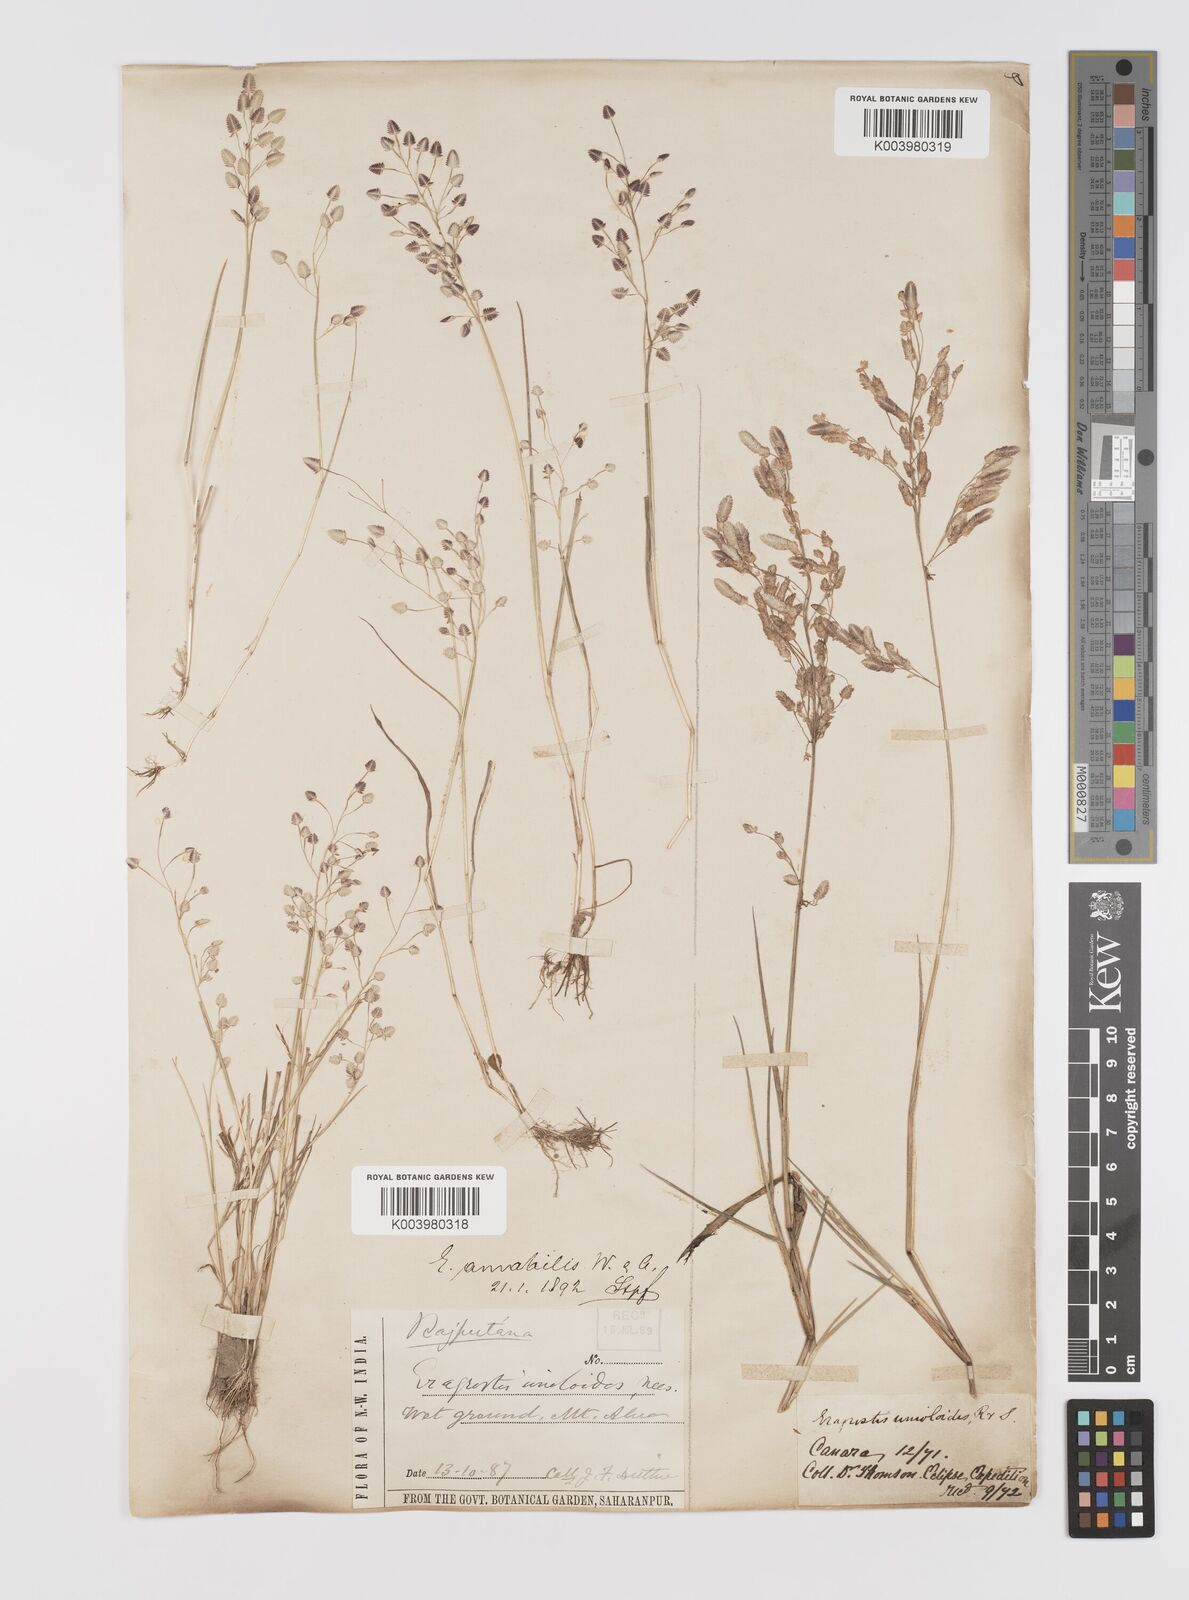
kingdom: Plantae
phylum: Tracheophyta
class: Liliopsida
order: Poales
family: Poaceae
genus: Eragrostis
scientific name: Eragrostis unioloides
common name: Chinese lovegrass
